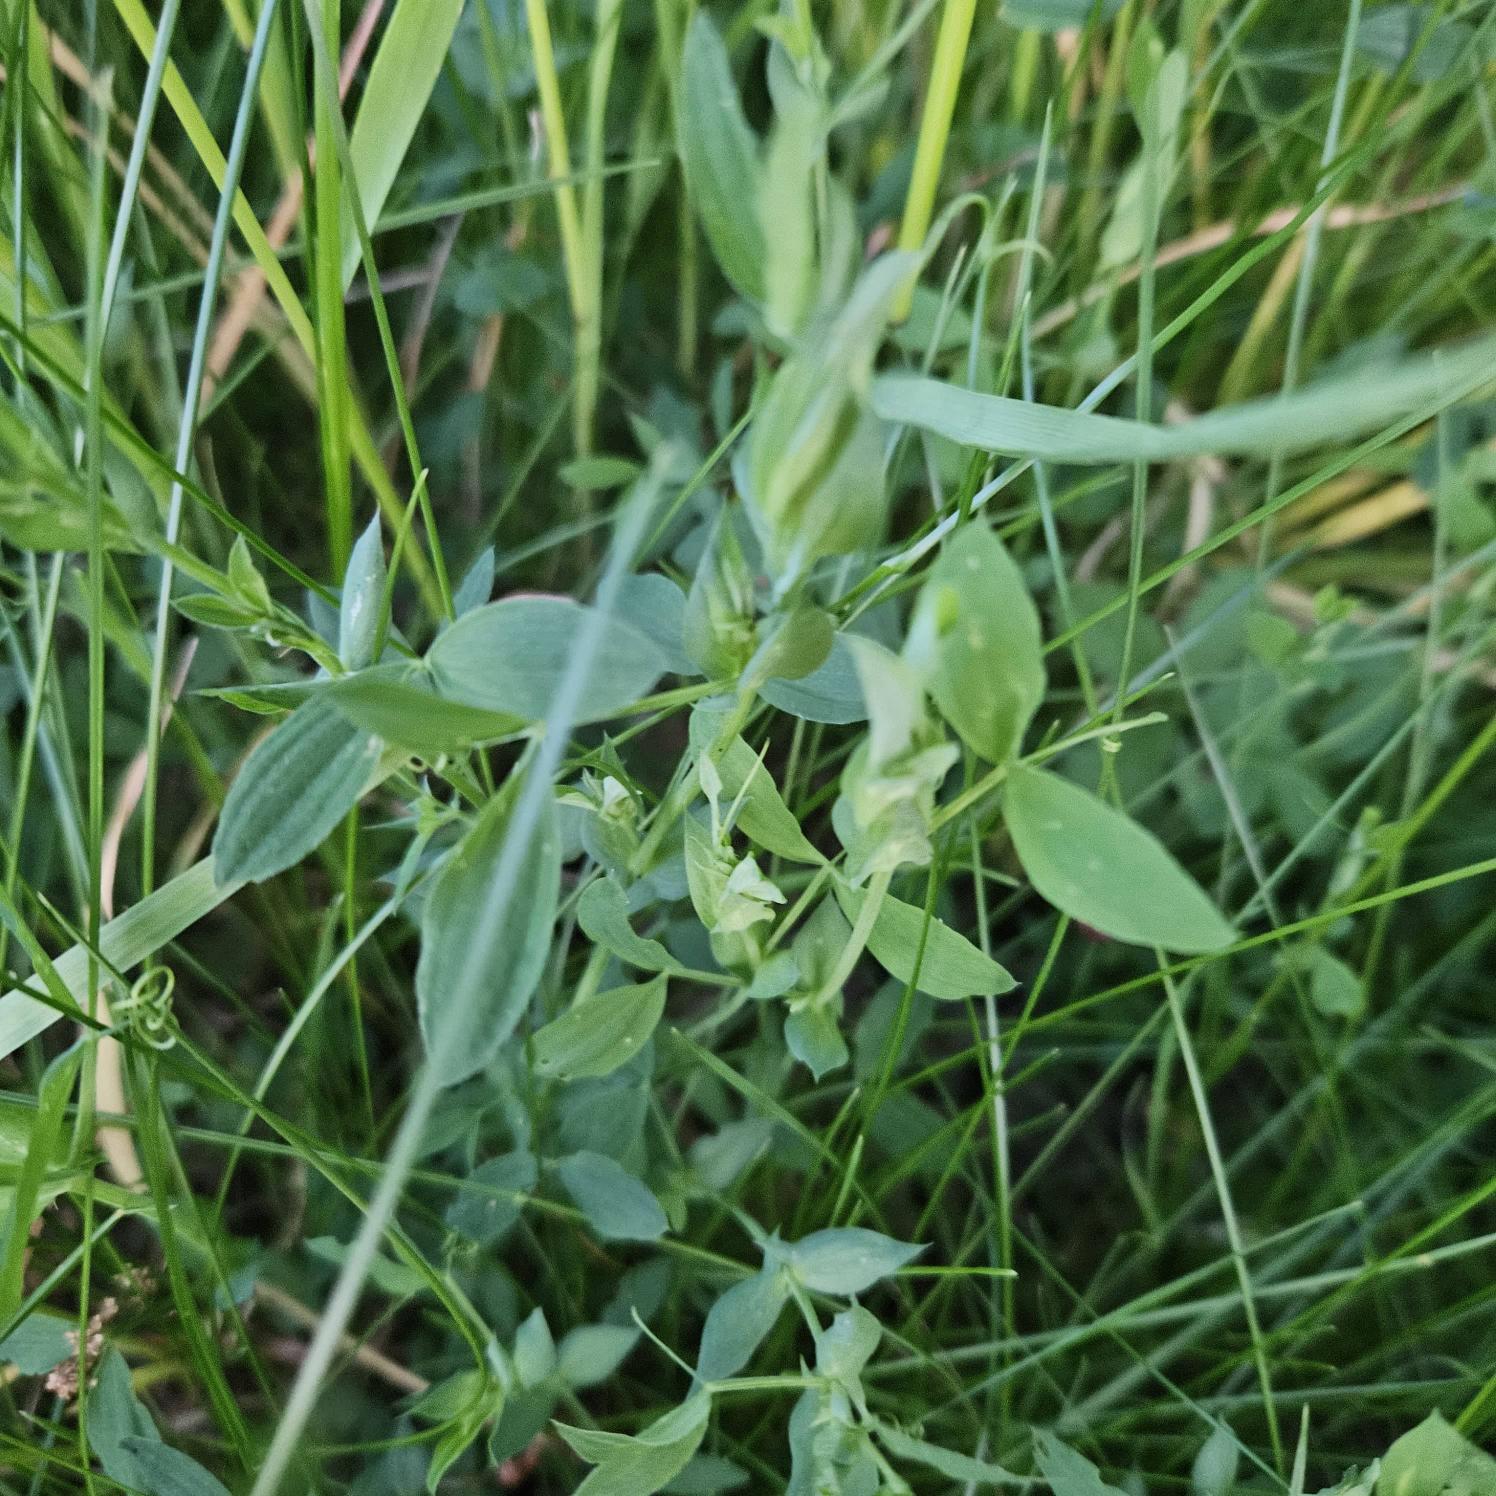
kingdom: Plantae
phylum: Tracheophyta
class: Magnoliopsida
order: Fabales
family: Fabaceae
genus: Lathyrus
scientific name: Lathyrus pratensis
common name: Gul fladbælg
